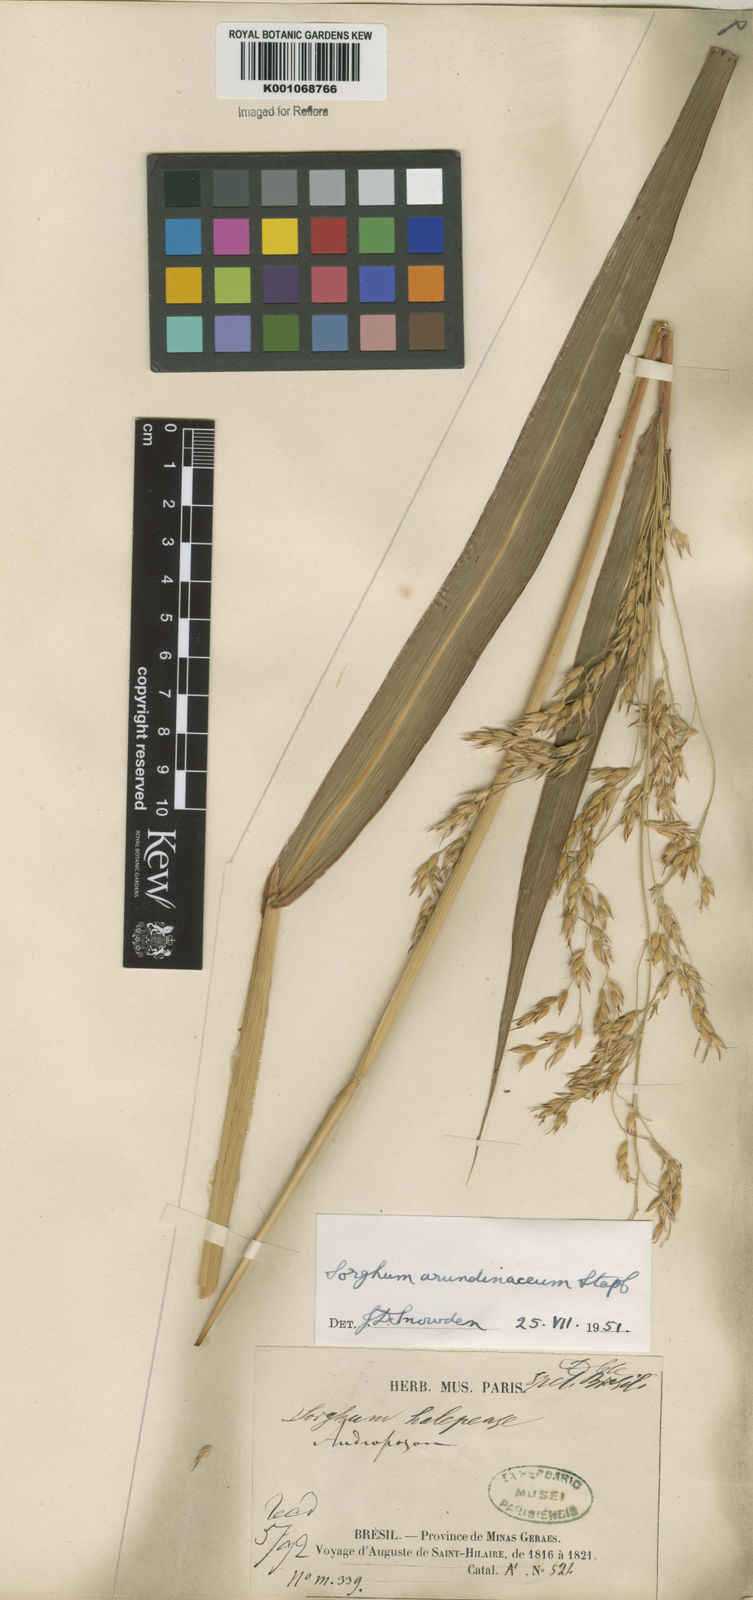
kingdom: Plantae
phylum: Tracheophyta
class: Liliopsida
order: Poales
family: Poaceae
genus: Sorghum
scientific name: Sorghum arundinaceum
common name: Sorghum
